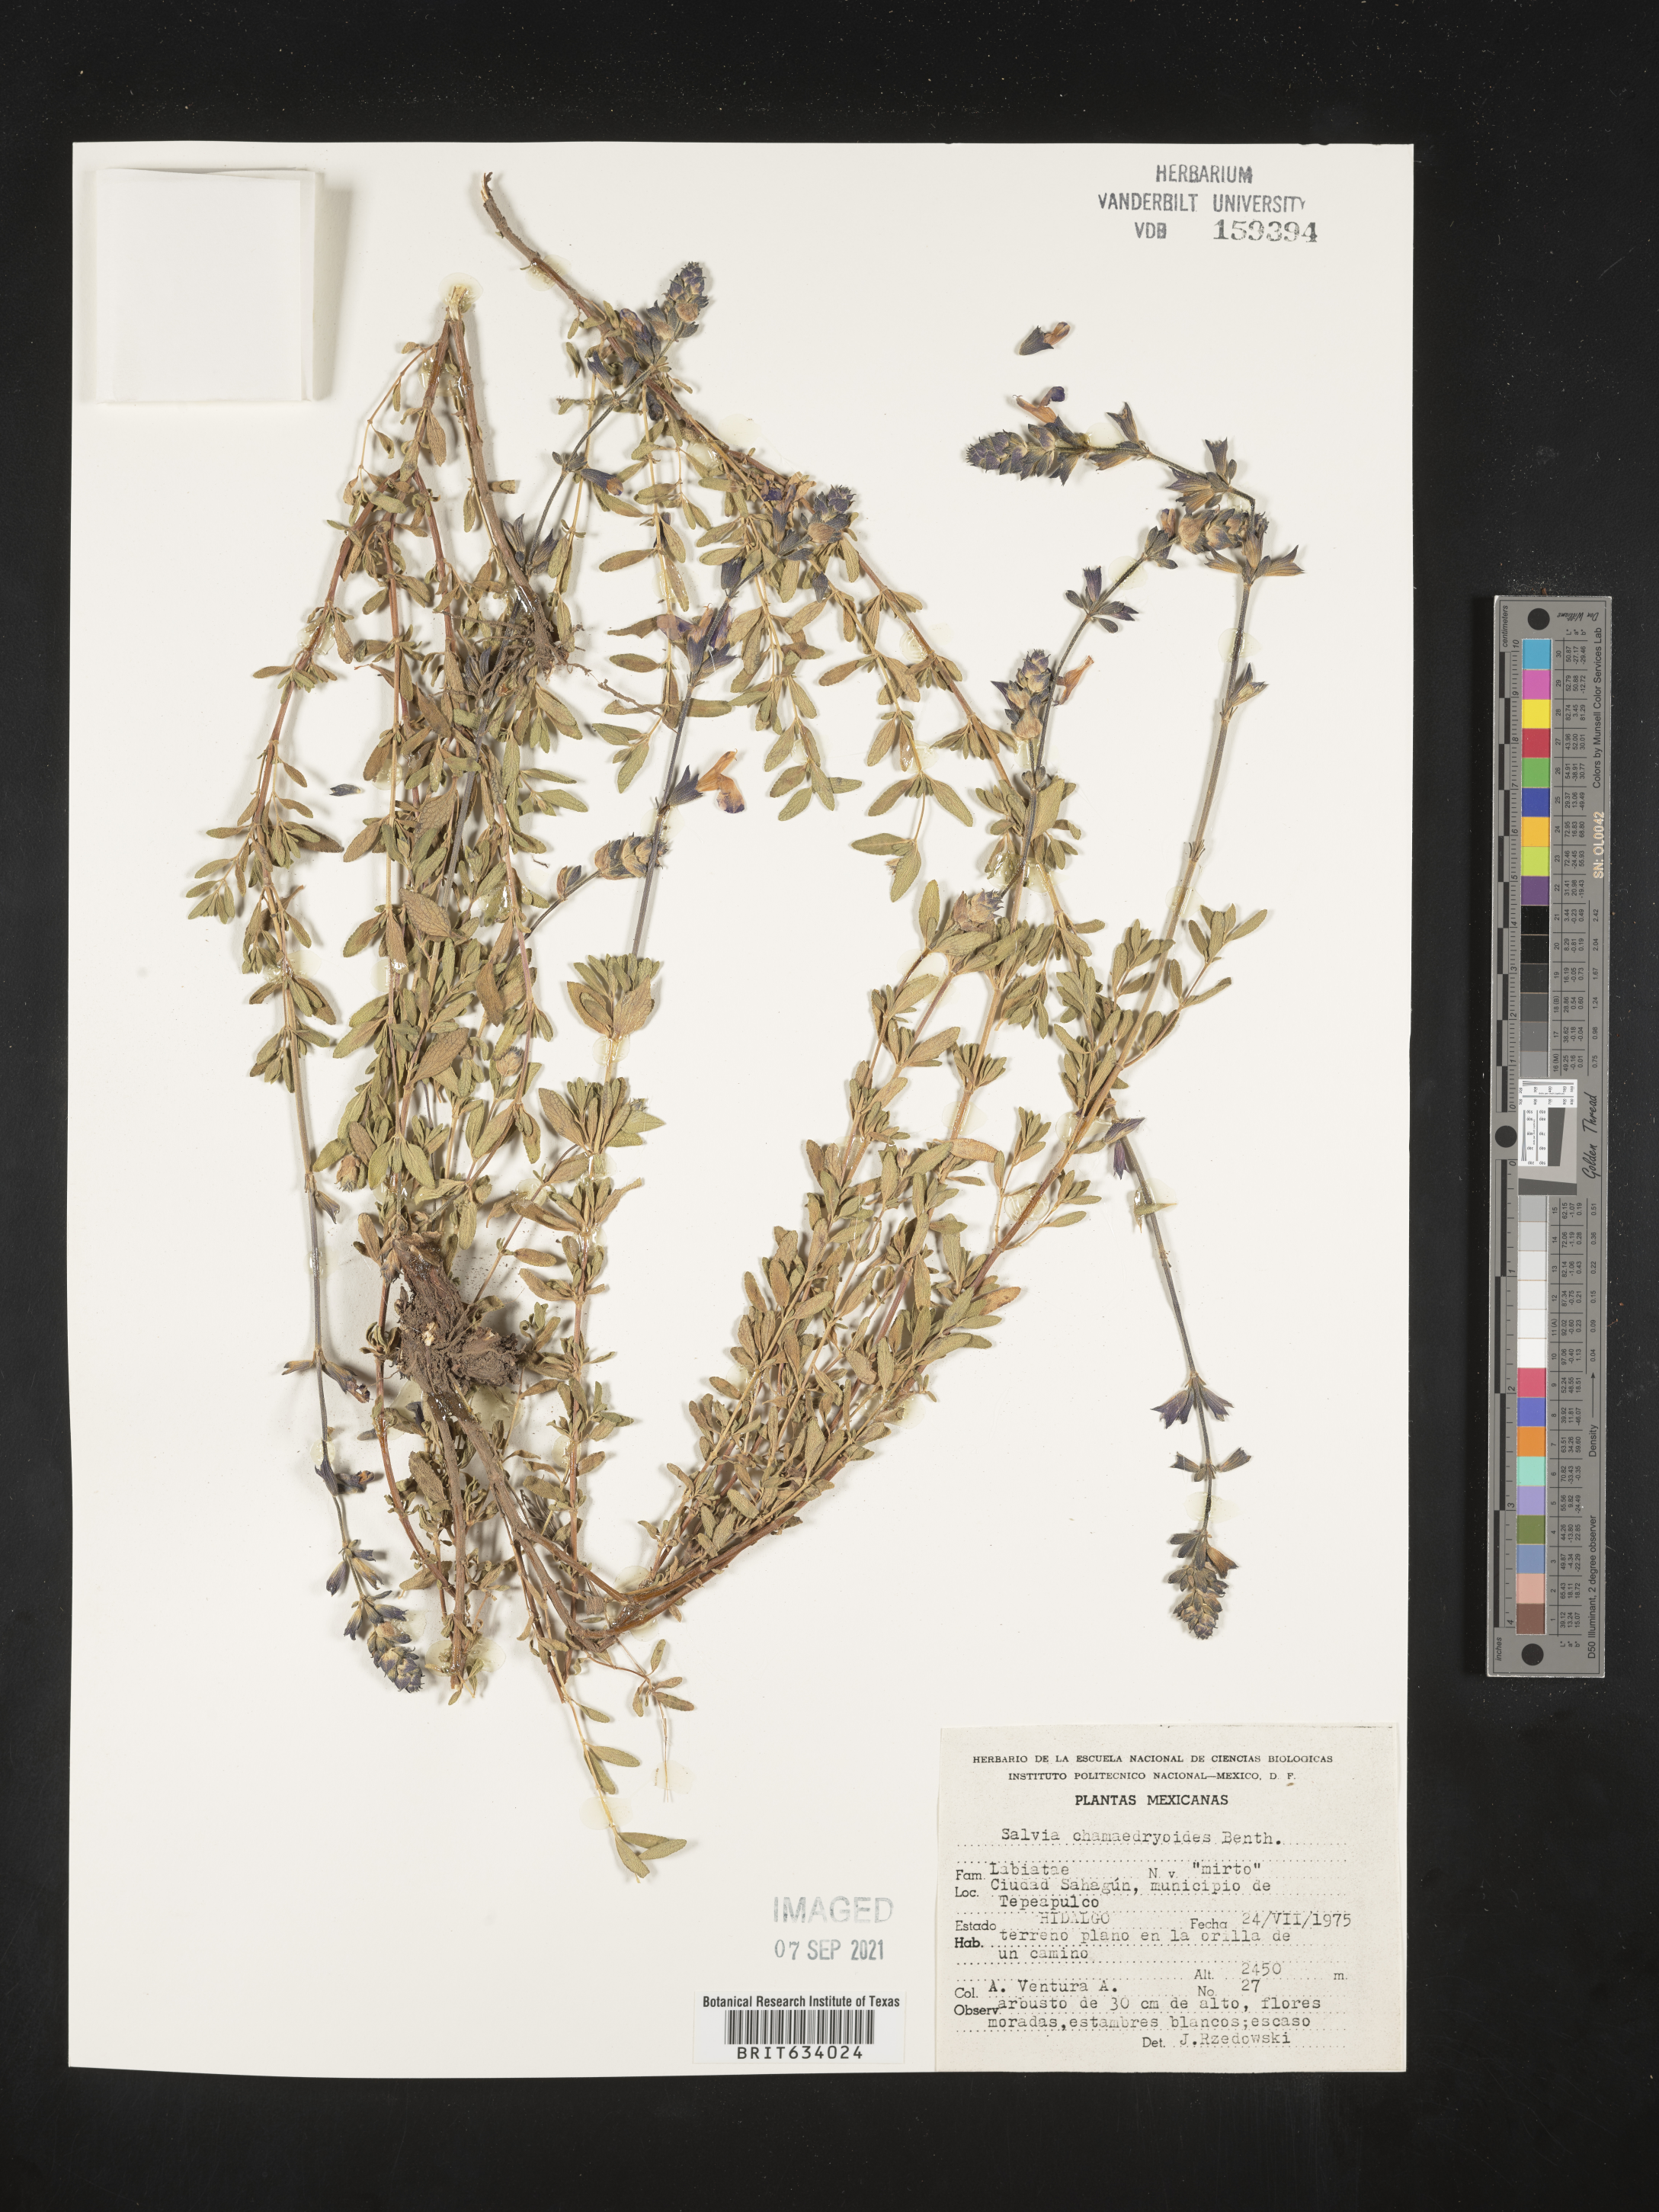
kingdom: Plantae
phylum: Tracheophyta
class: Magnoliopsida
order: Lamiales
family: Lamiaceae
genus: Salvia
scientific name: Salvia
